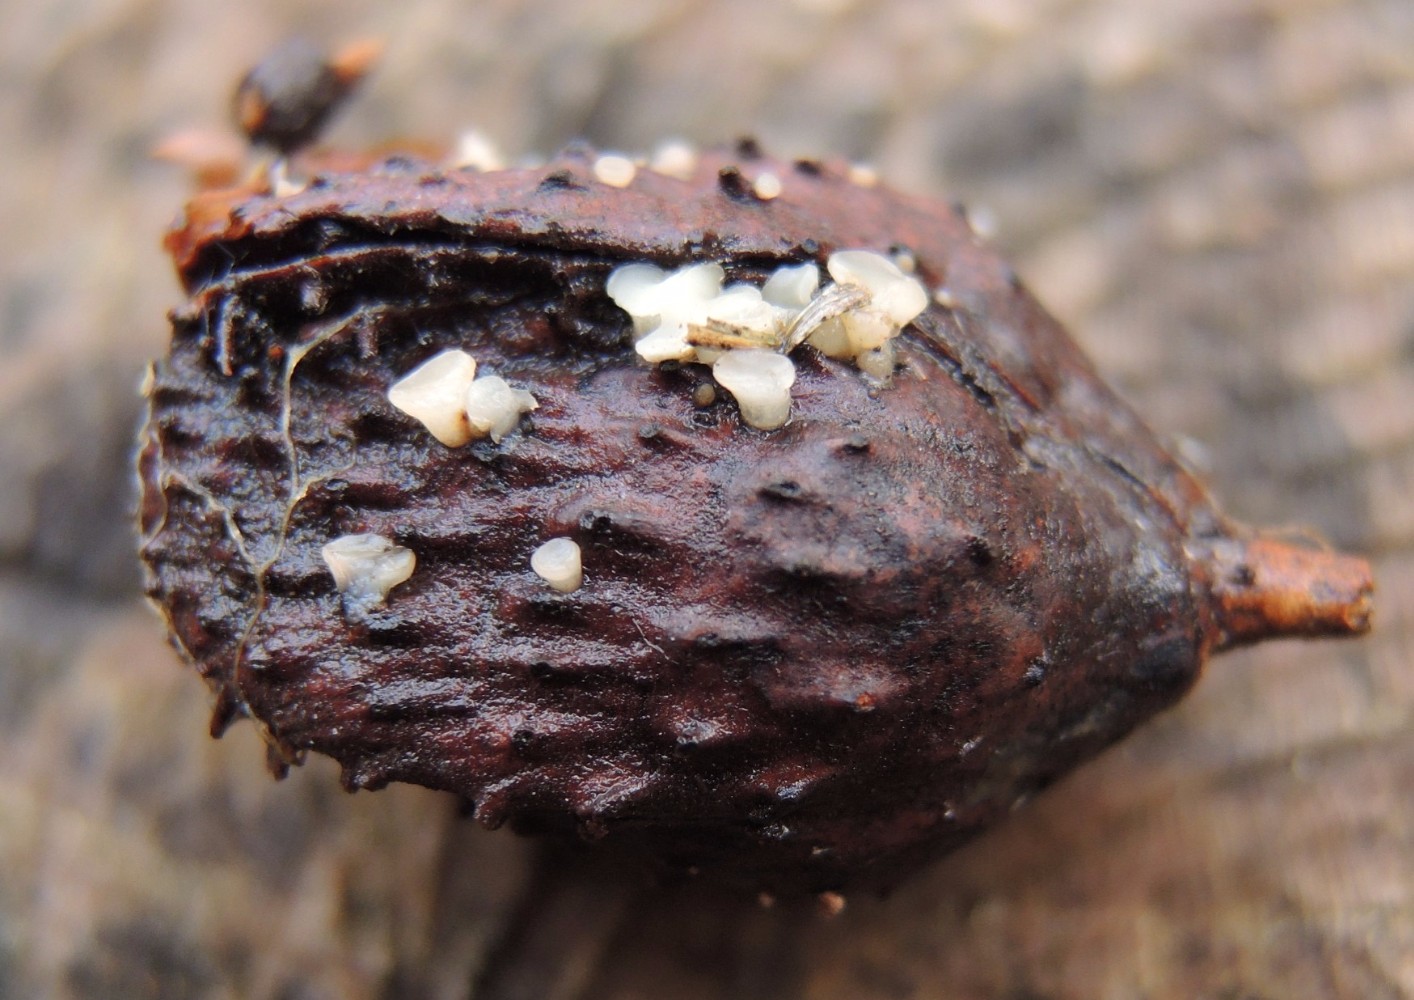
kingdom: Fungi
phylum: Ascomycota
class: Leotiomycetes
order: Helotiales
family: Helotiaceae
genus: Hymenoscyphus
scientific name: Hymenoscyphus fagineus
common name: vellugtende stilkskive
